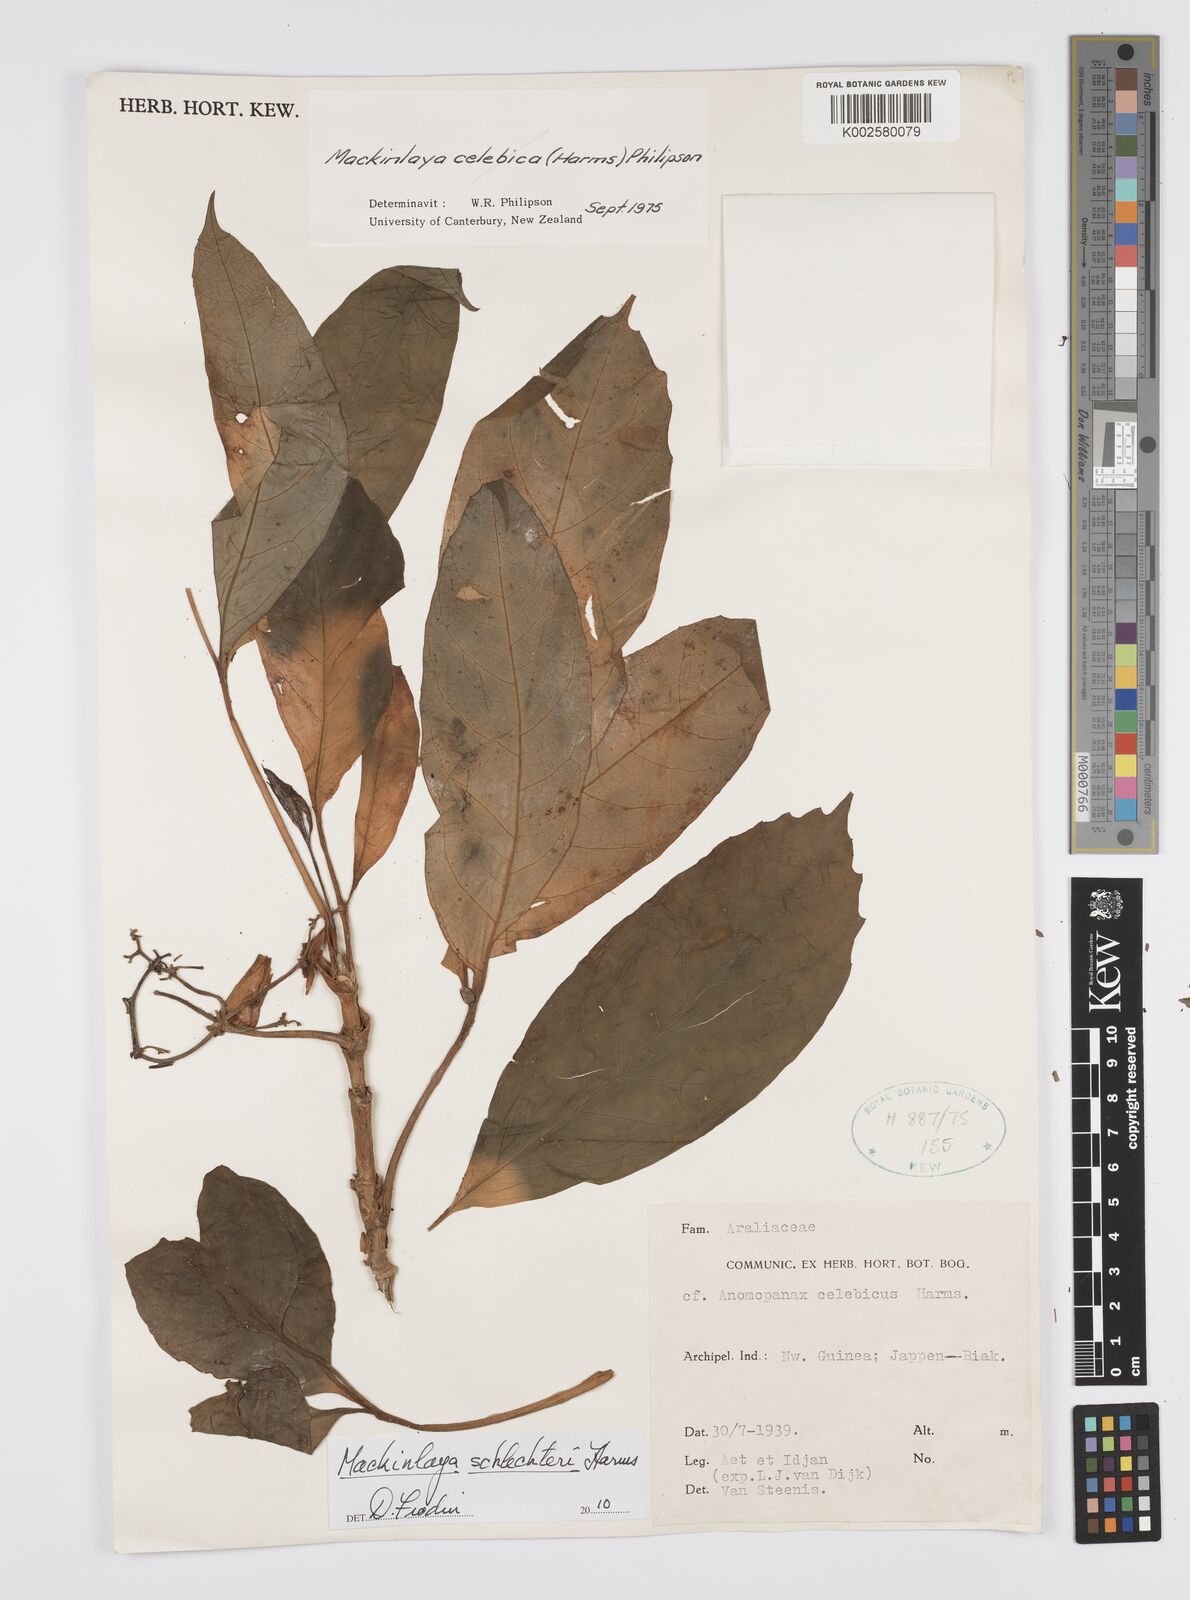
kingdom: Plantae
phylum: Tracheophyta
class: Magnoliopsida
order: Apiales
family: Apiaceae
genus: Mackinlaya
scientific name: Mackinlaya schlechteri
